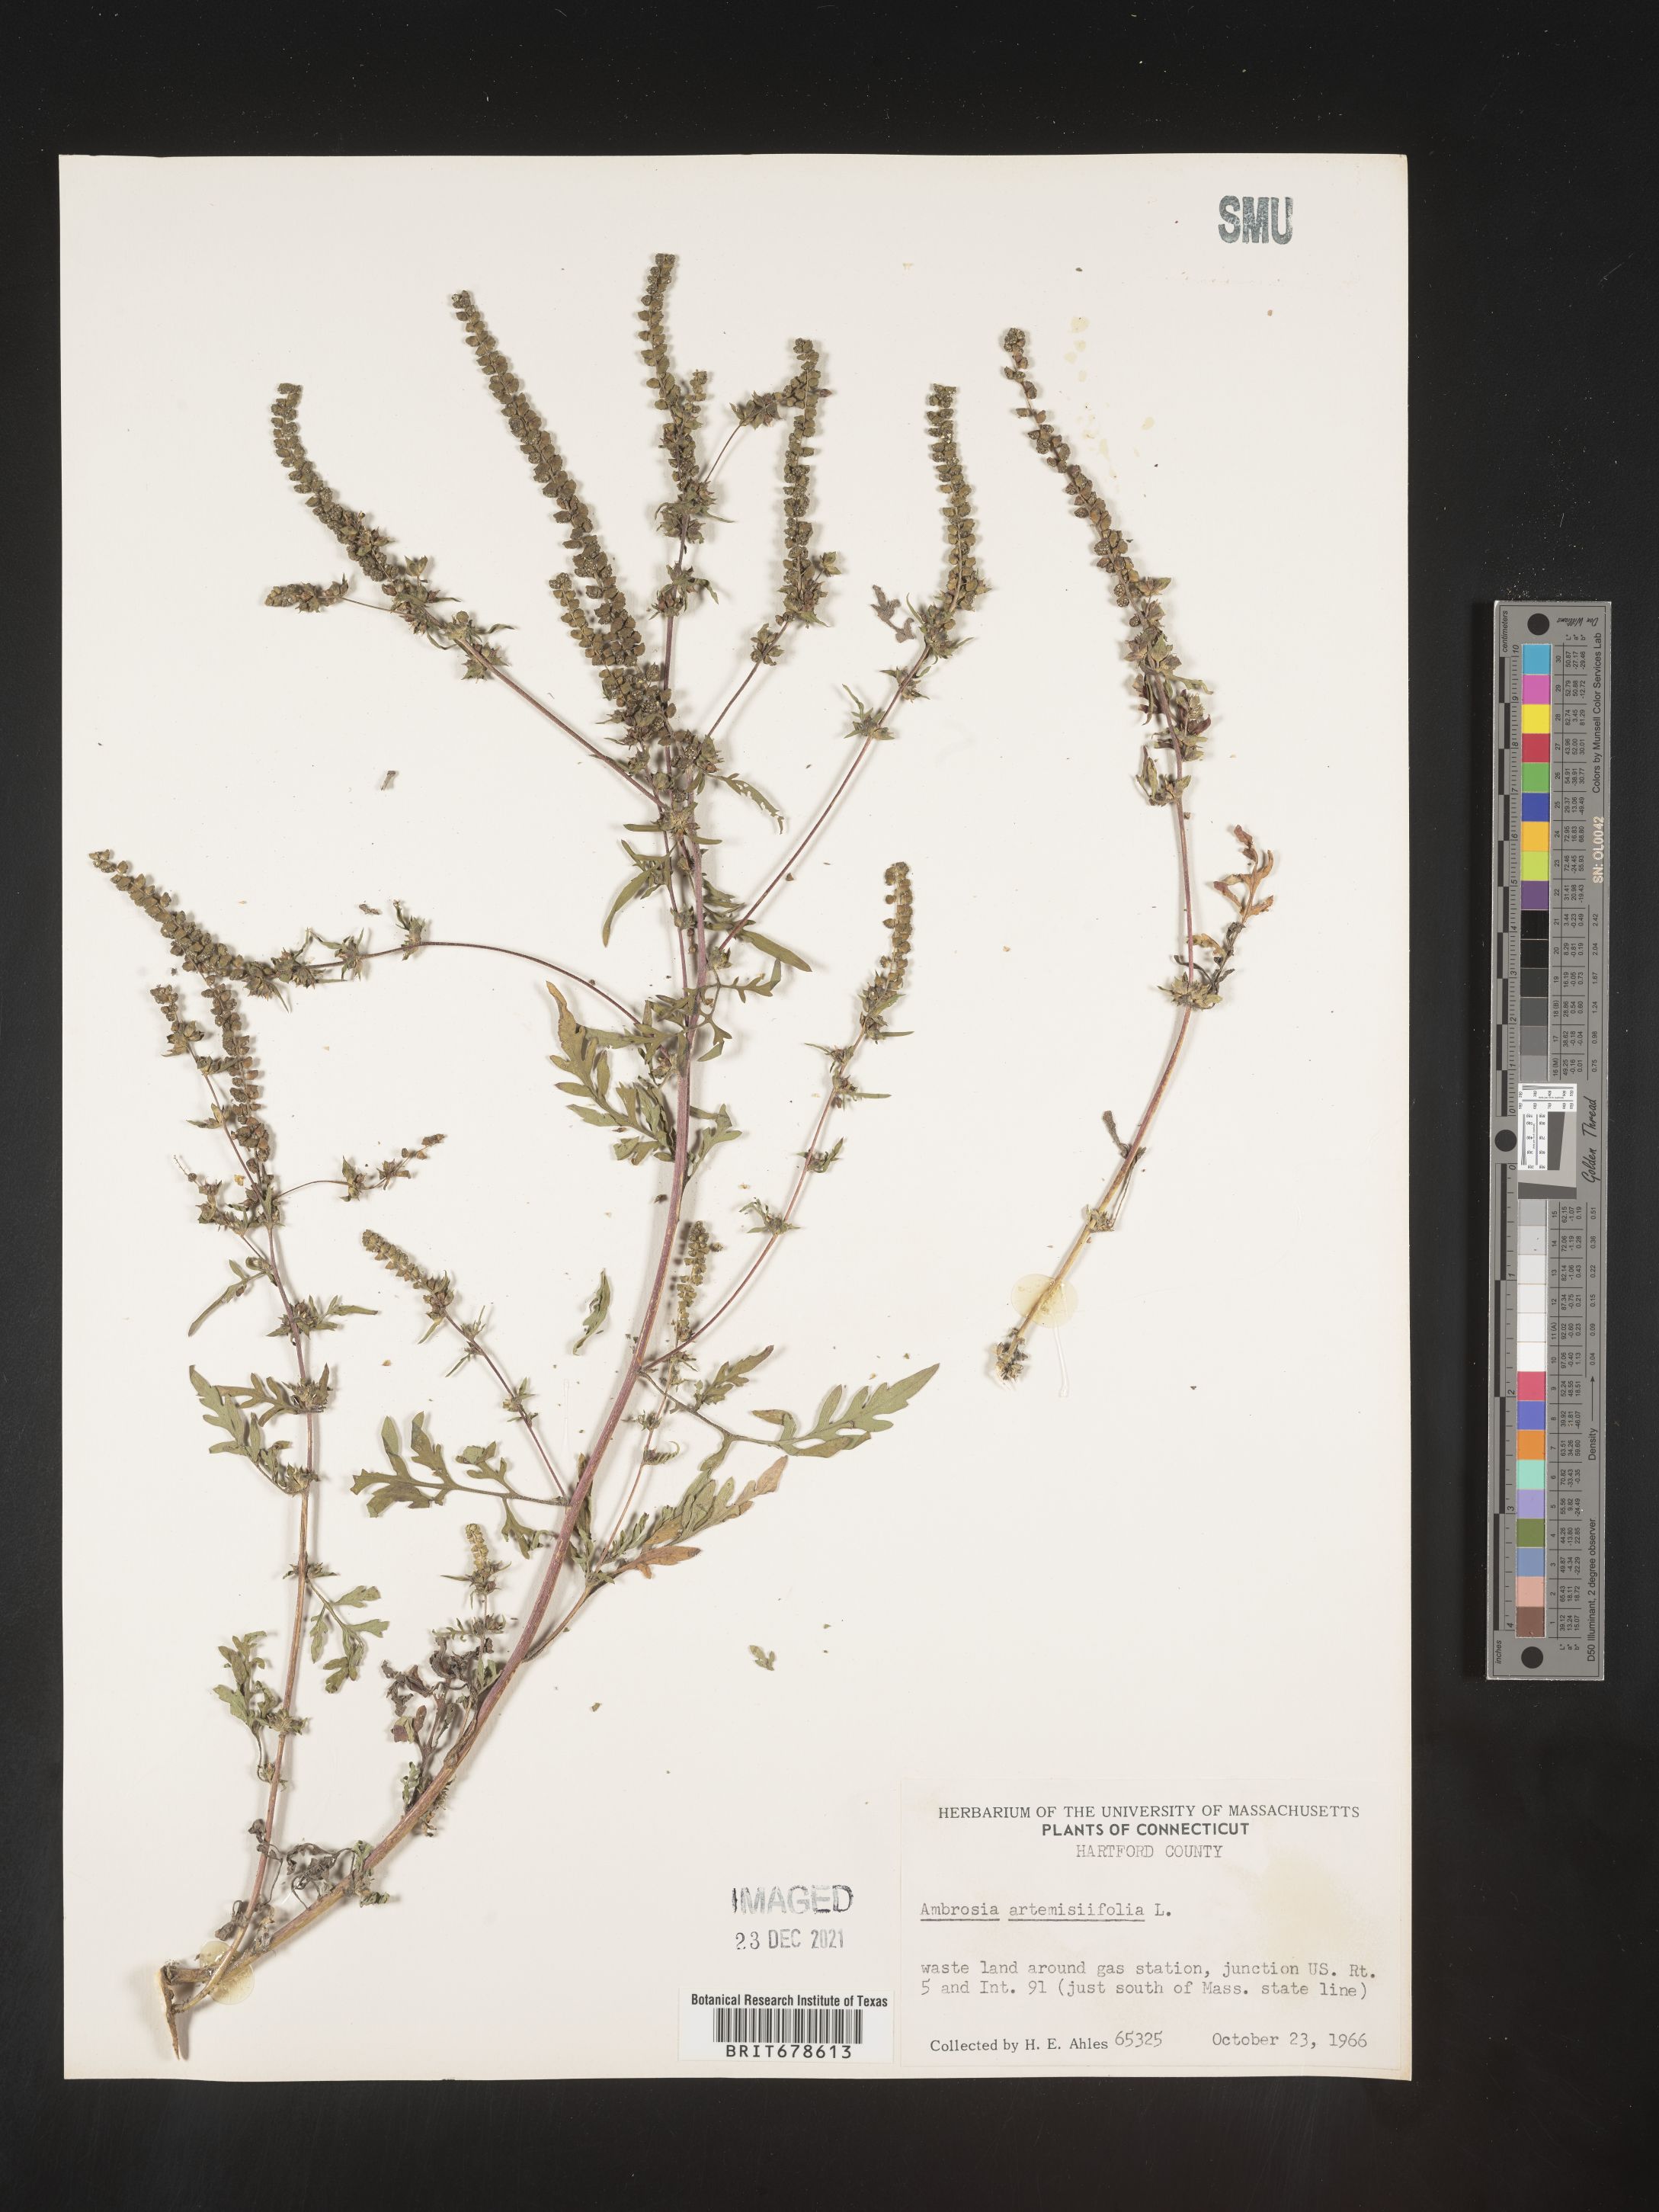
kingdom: Plantae
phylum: Tracheophyta
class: Magnoliopsida
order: Asterales
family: Asteraceae
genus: Ambrosia
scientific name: Ambrosia polystachya
